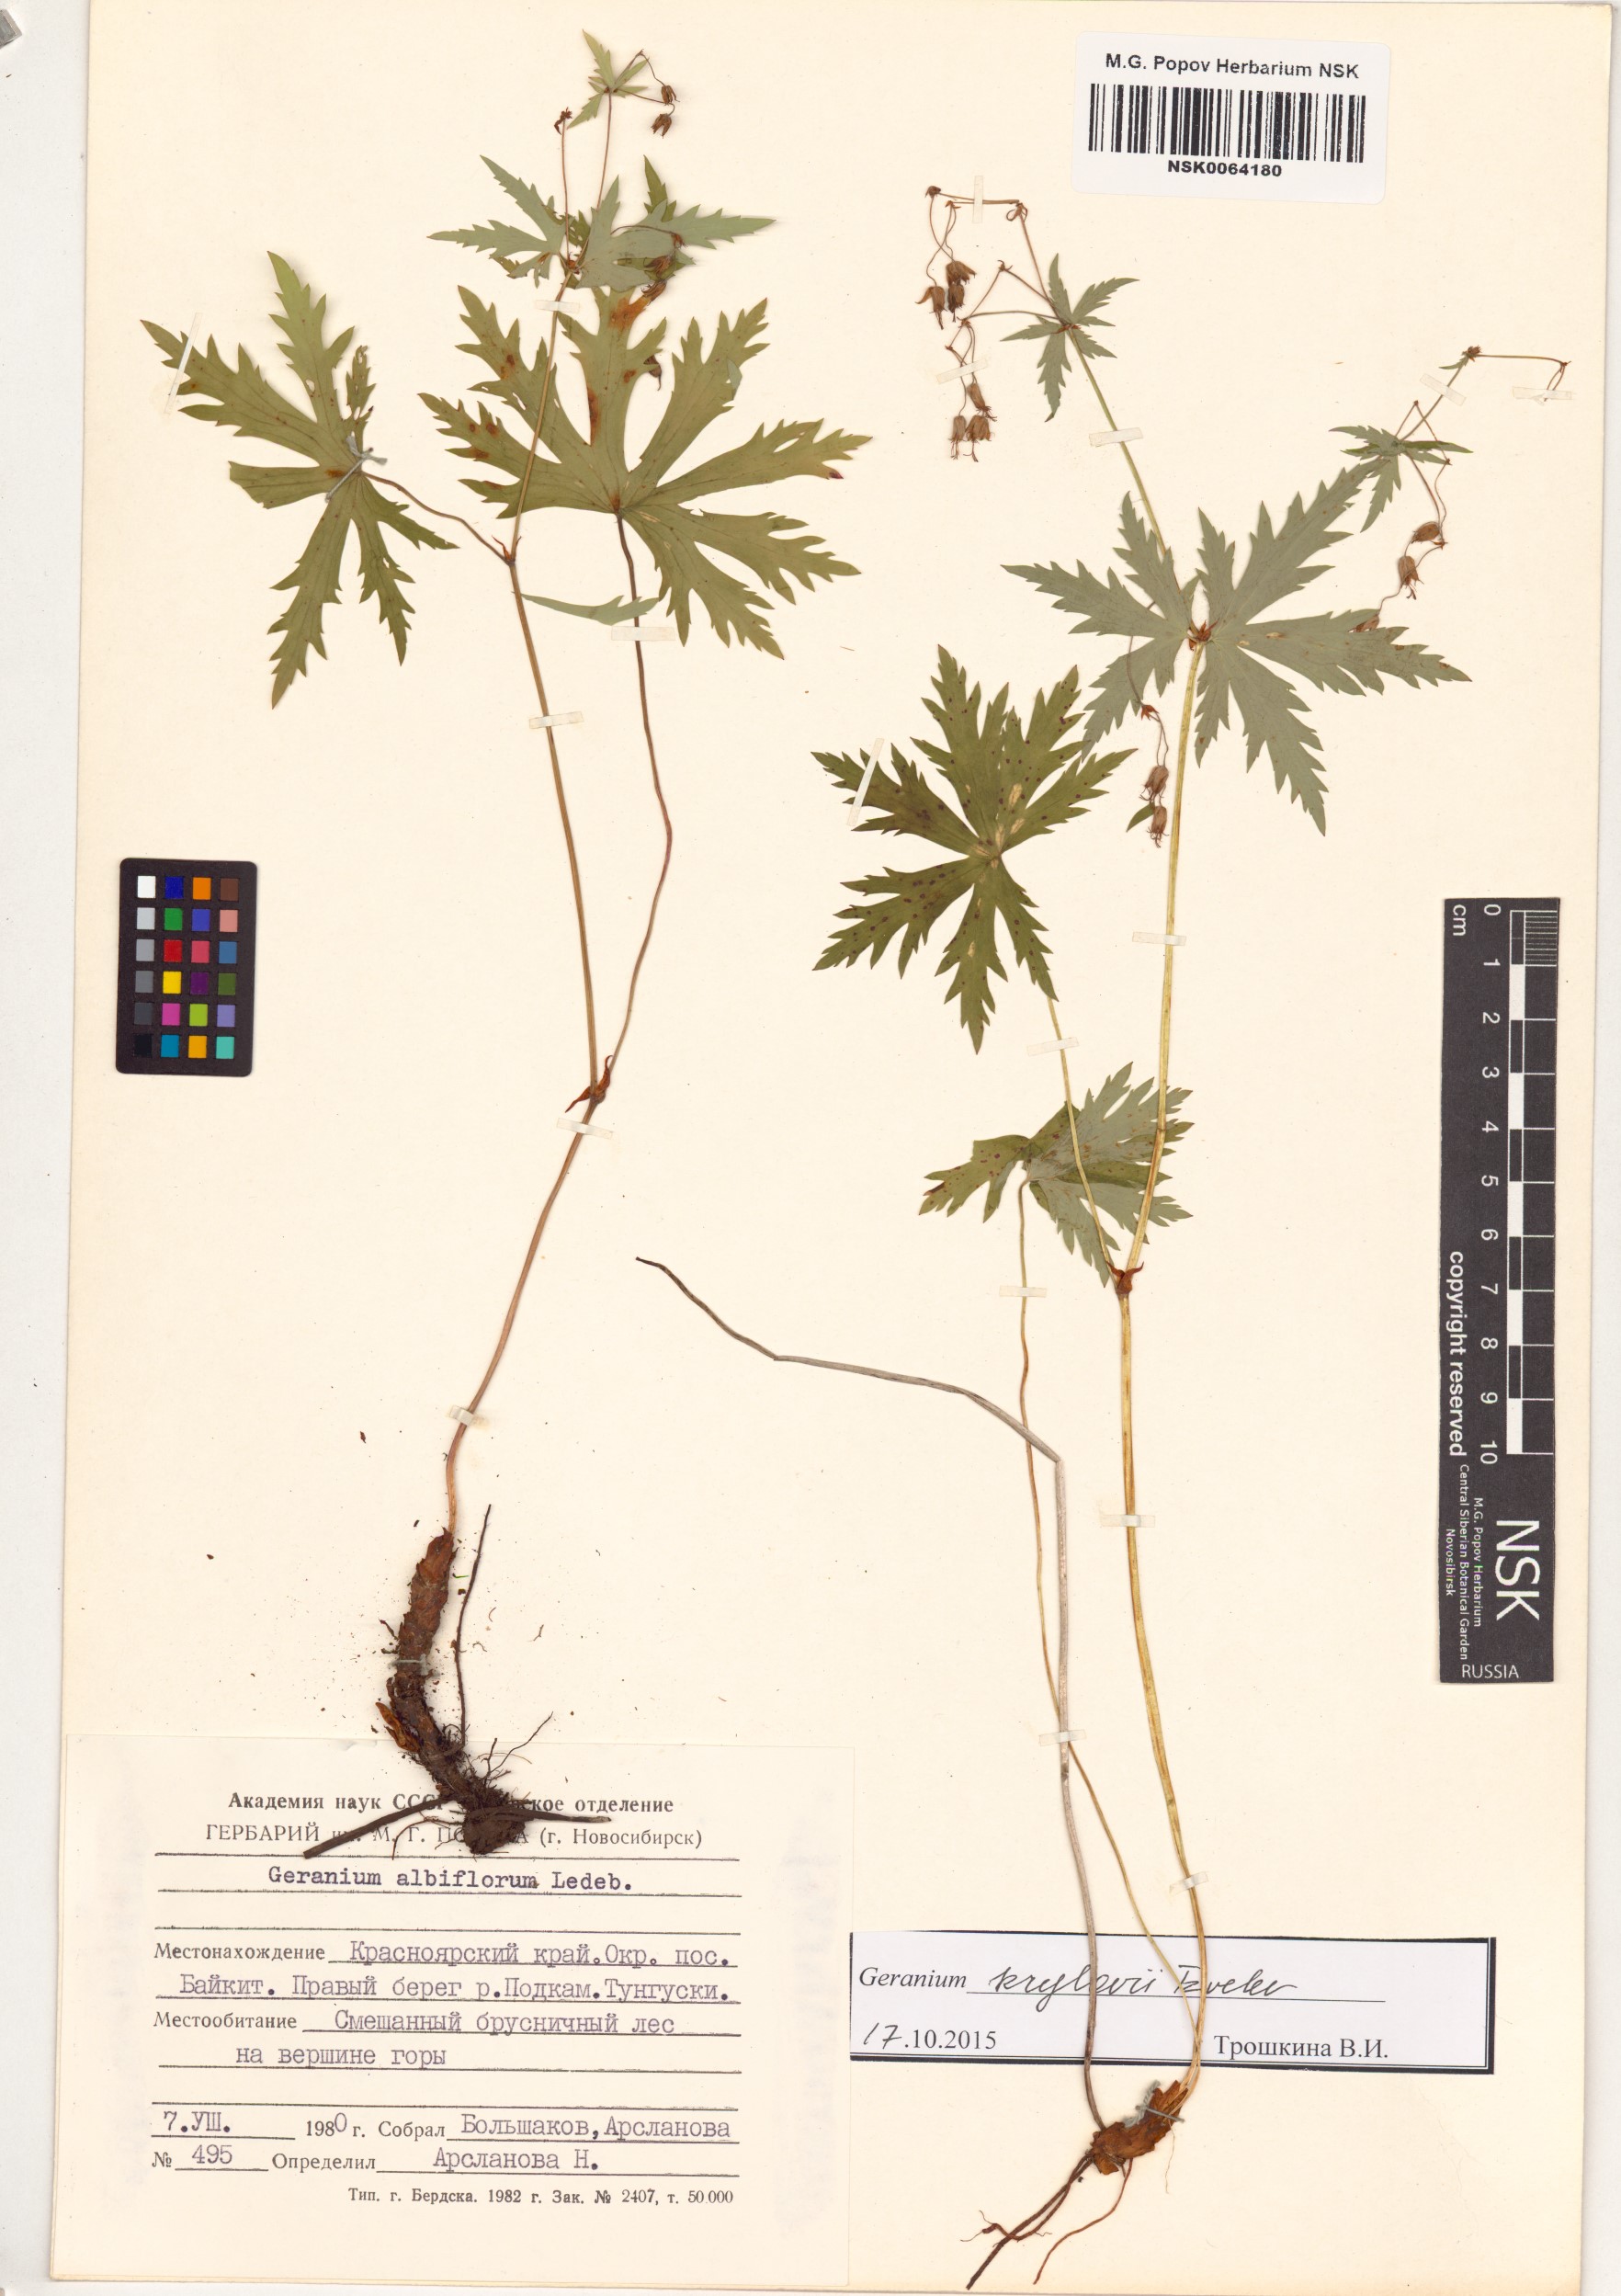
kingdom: Plantae
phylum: Tracheophyta
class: Magnoliopsida
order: Geraniales
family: Geraniaceae
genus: Geranium
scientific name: Geranium sylvaticum
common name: Wood crane's-bill
